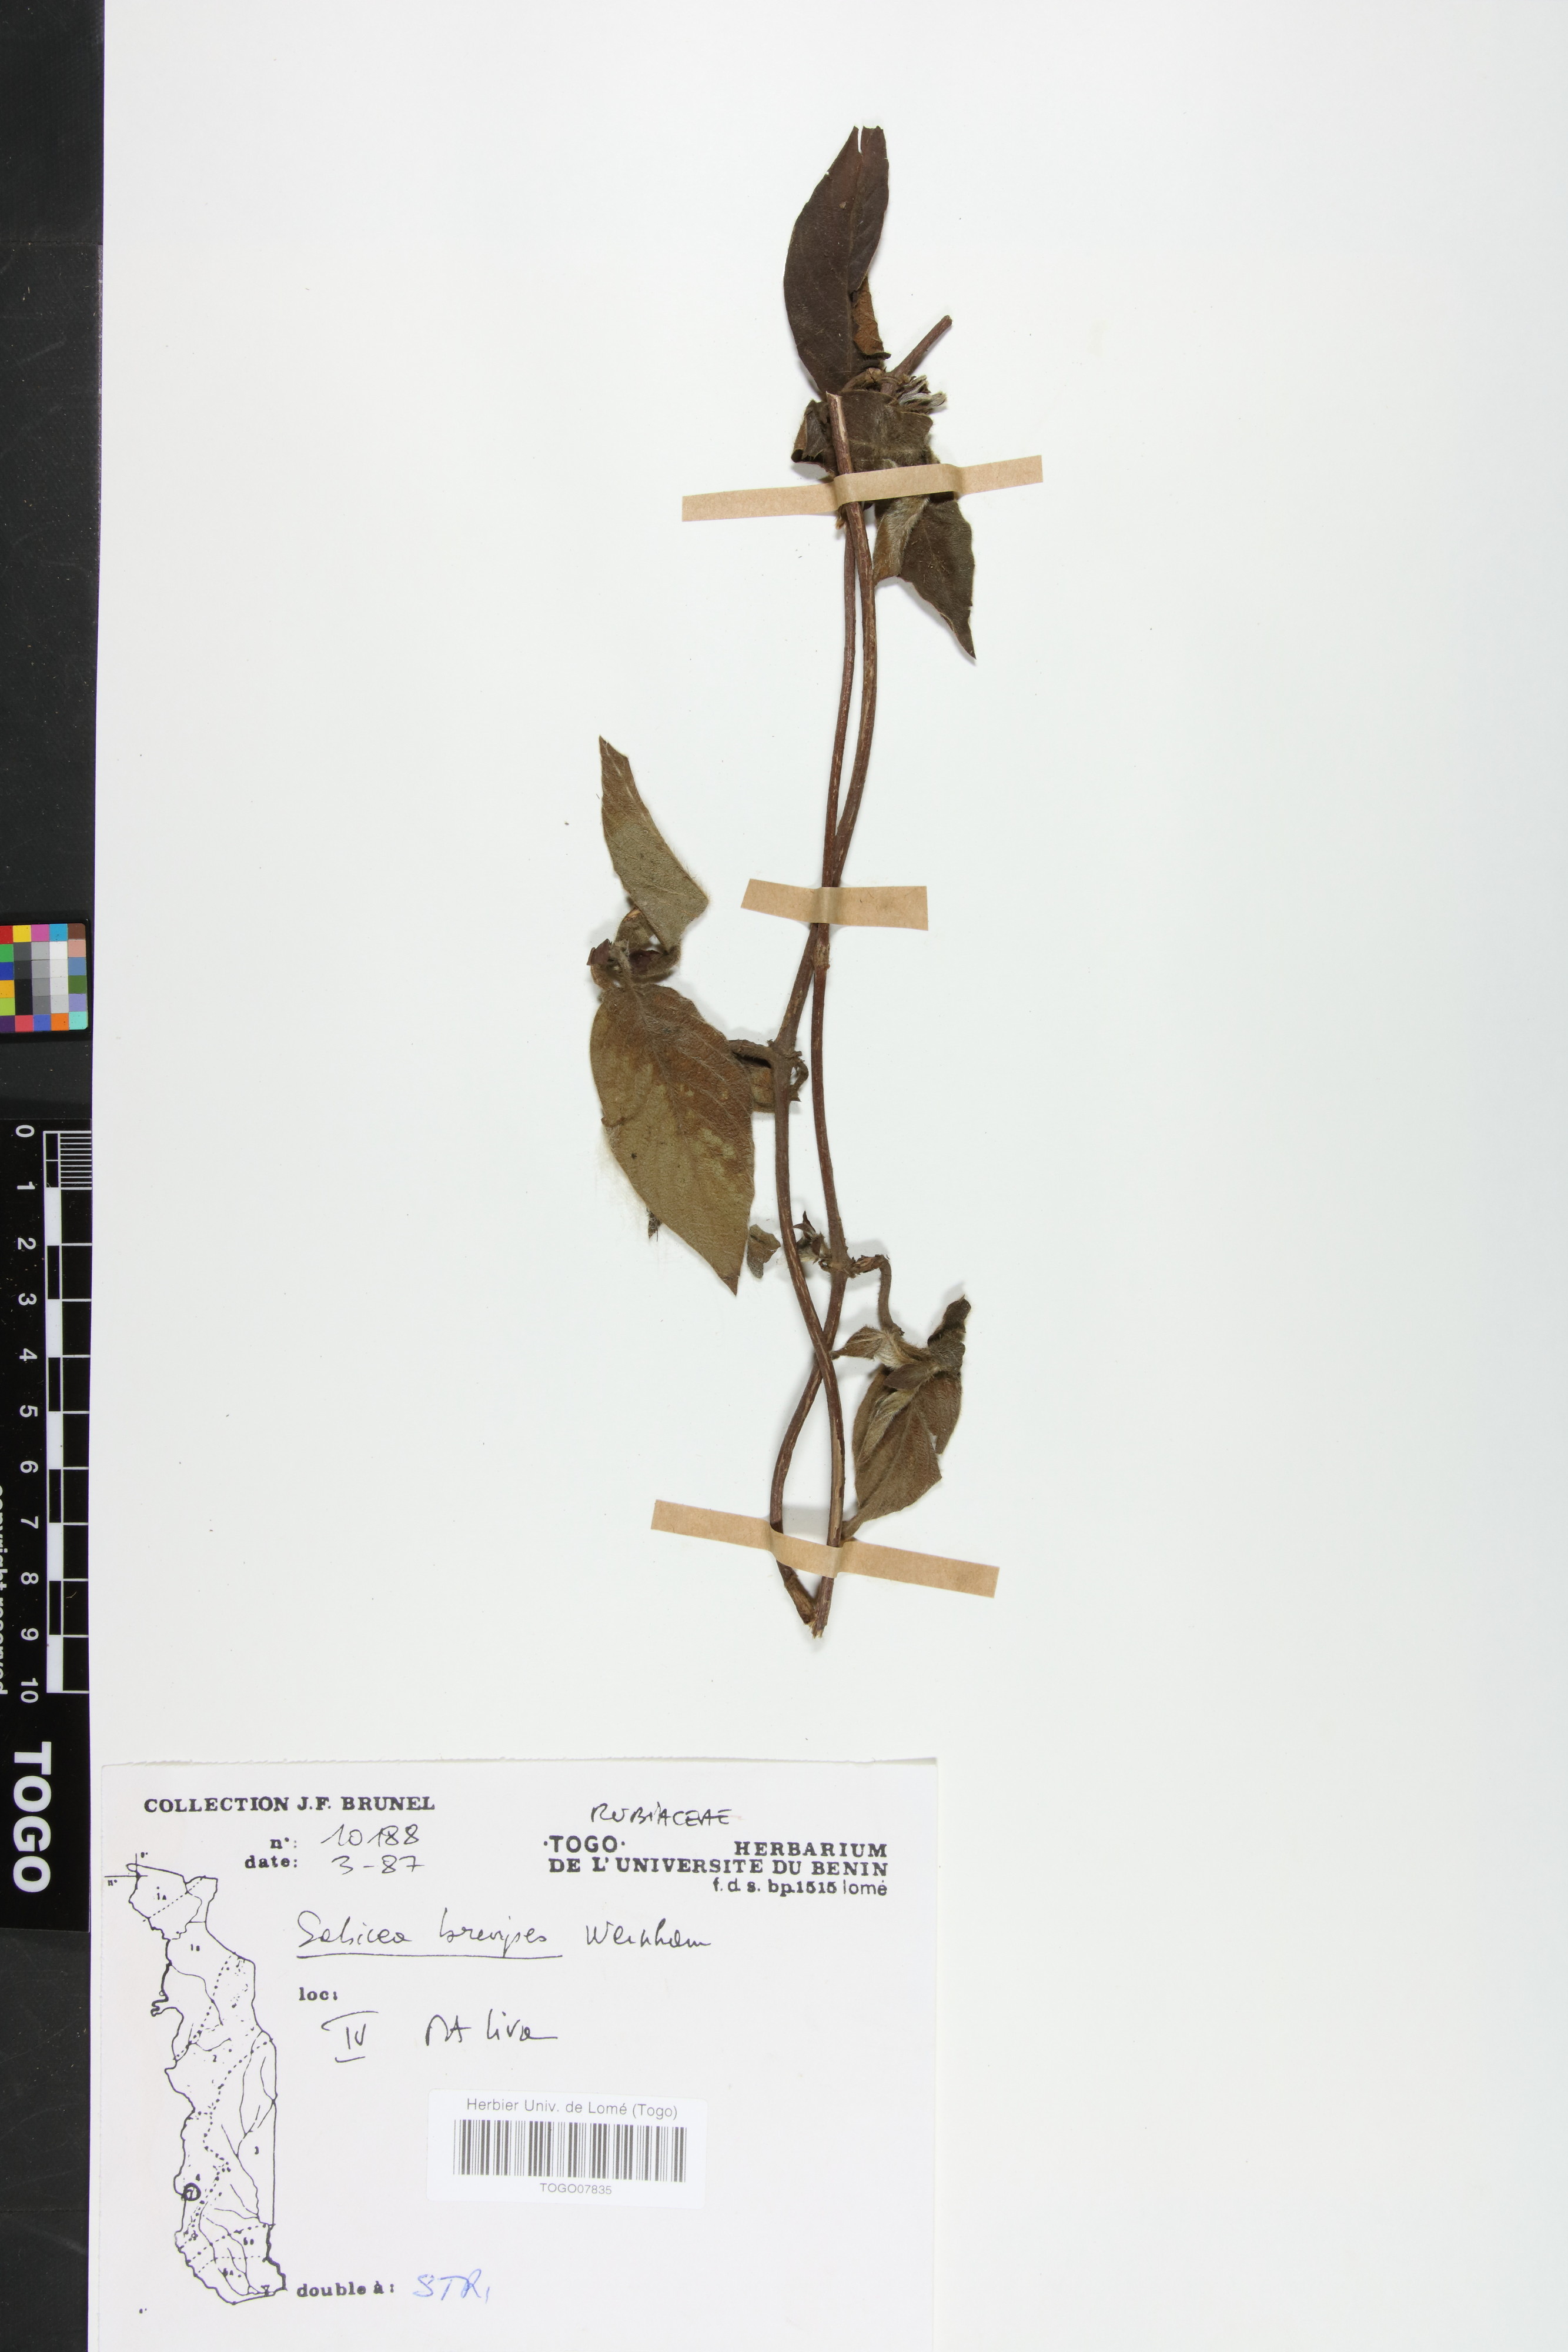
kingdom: Plantae
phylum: Tracheophyta
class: Magnoliopsida
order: Gentianales
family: Rubiaceae
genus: Sabicea
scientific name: Sabicea brevipes
